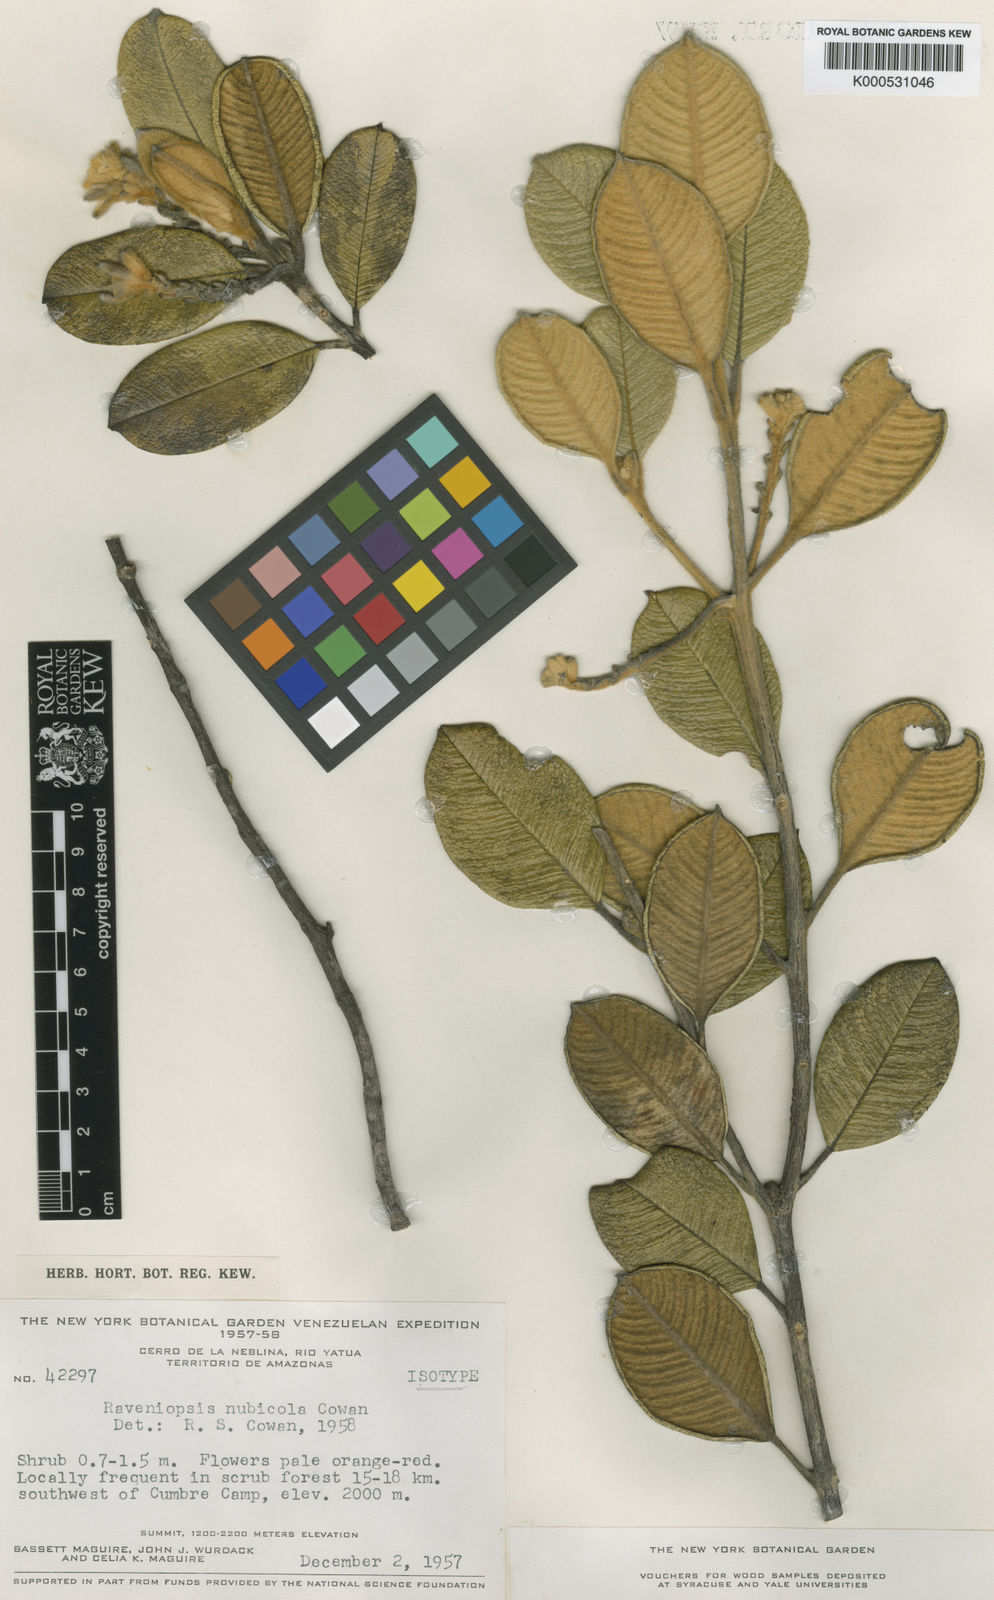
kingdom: Plantae
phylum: Tracheophyta
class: Magnoliopsida
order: Sapindales
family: Rutaceae
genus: Raveniopsis
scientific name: Raveniopsis nubicola
